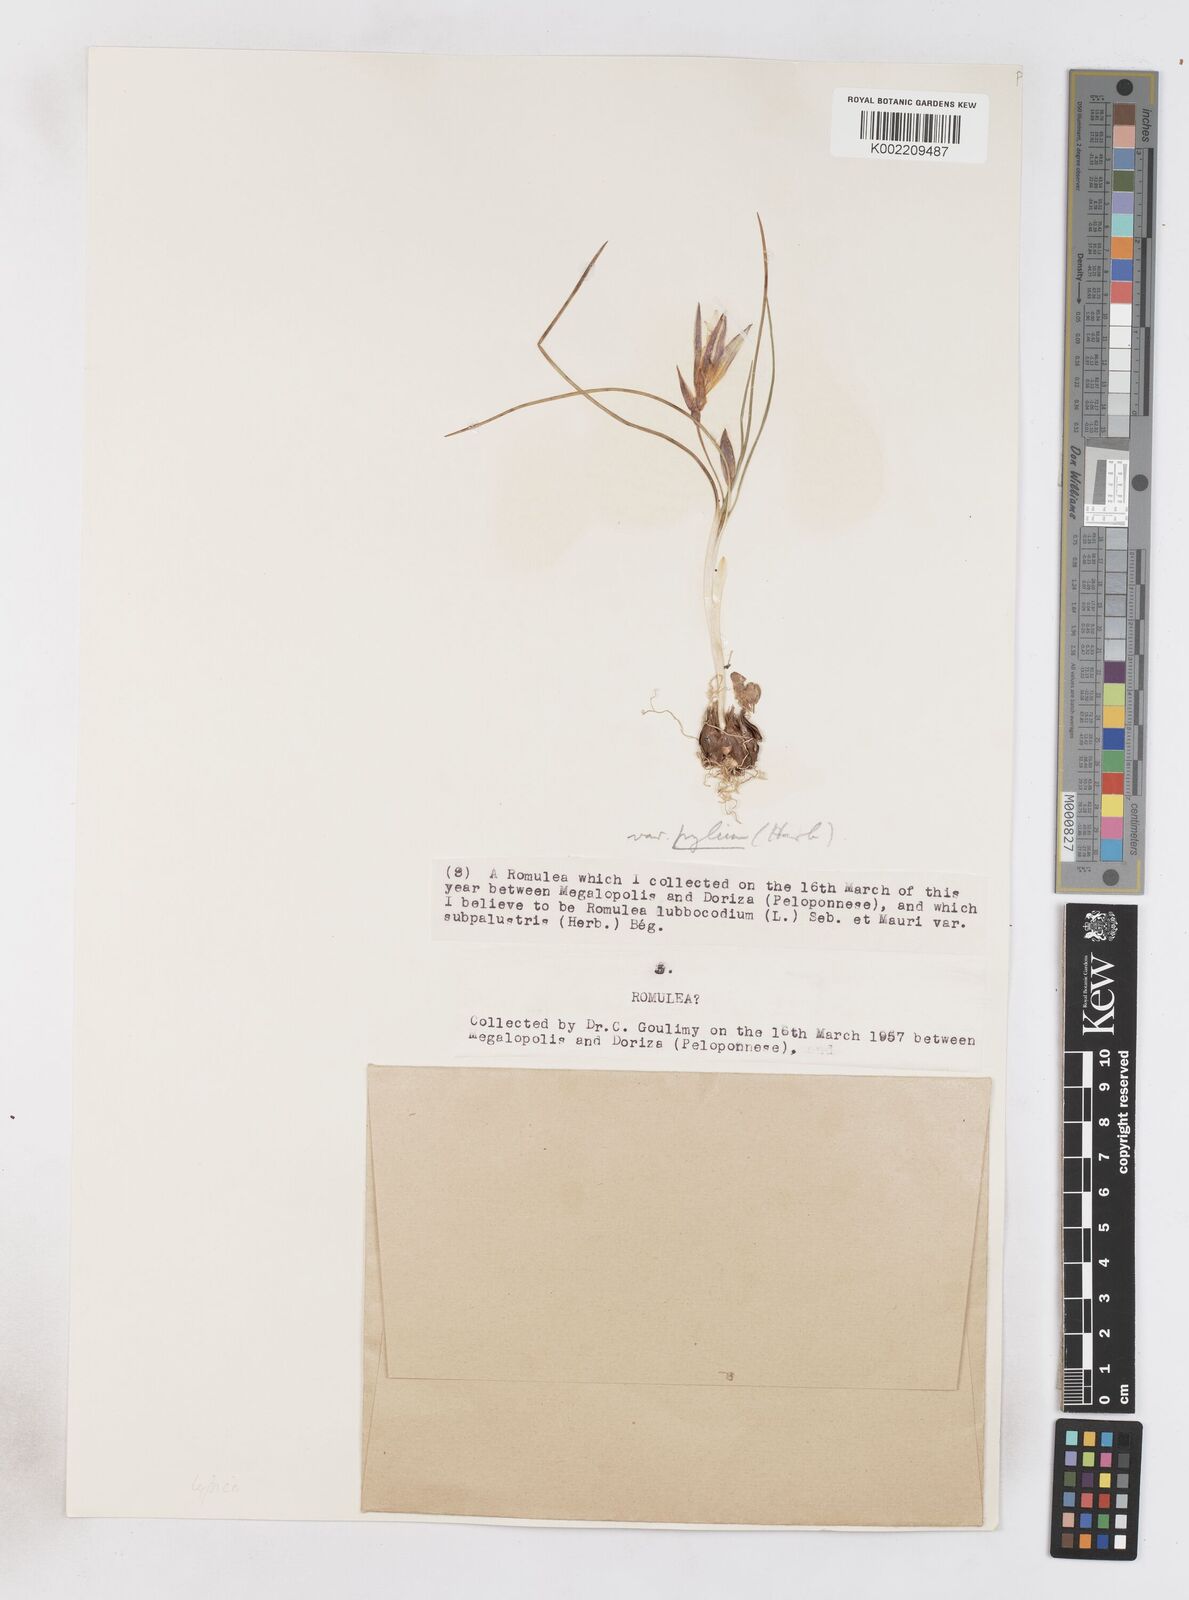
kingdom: Plantae
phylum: Tracheophyta
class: Liliopsida
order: Asparagales
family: Iridaceae
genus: Romulea
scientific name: Romulea bulbocodium
